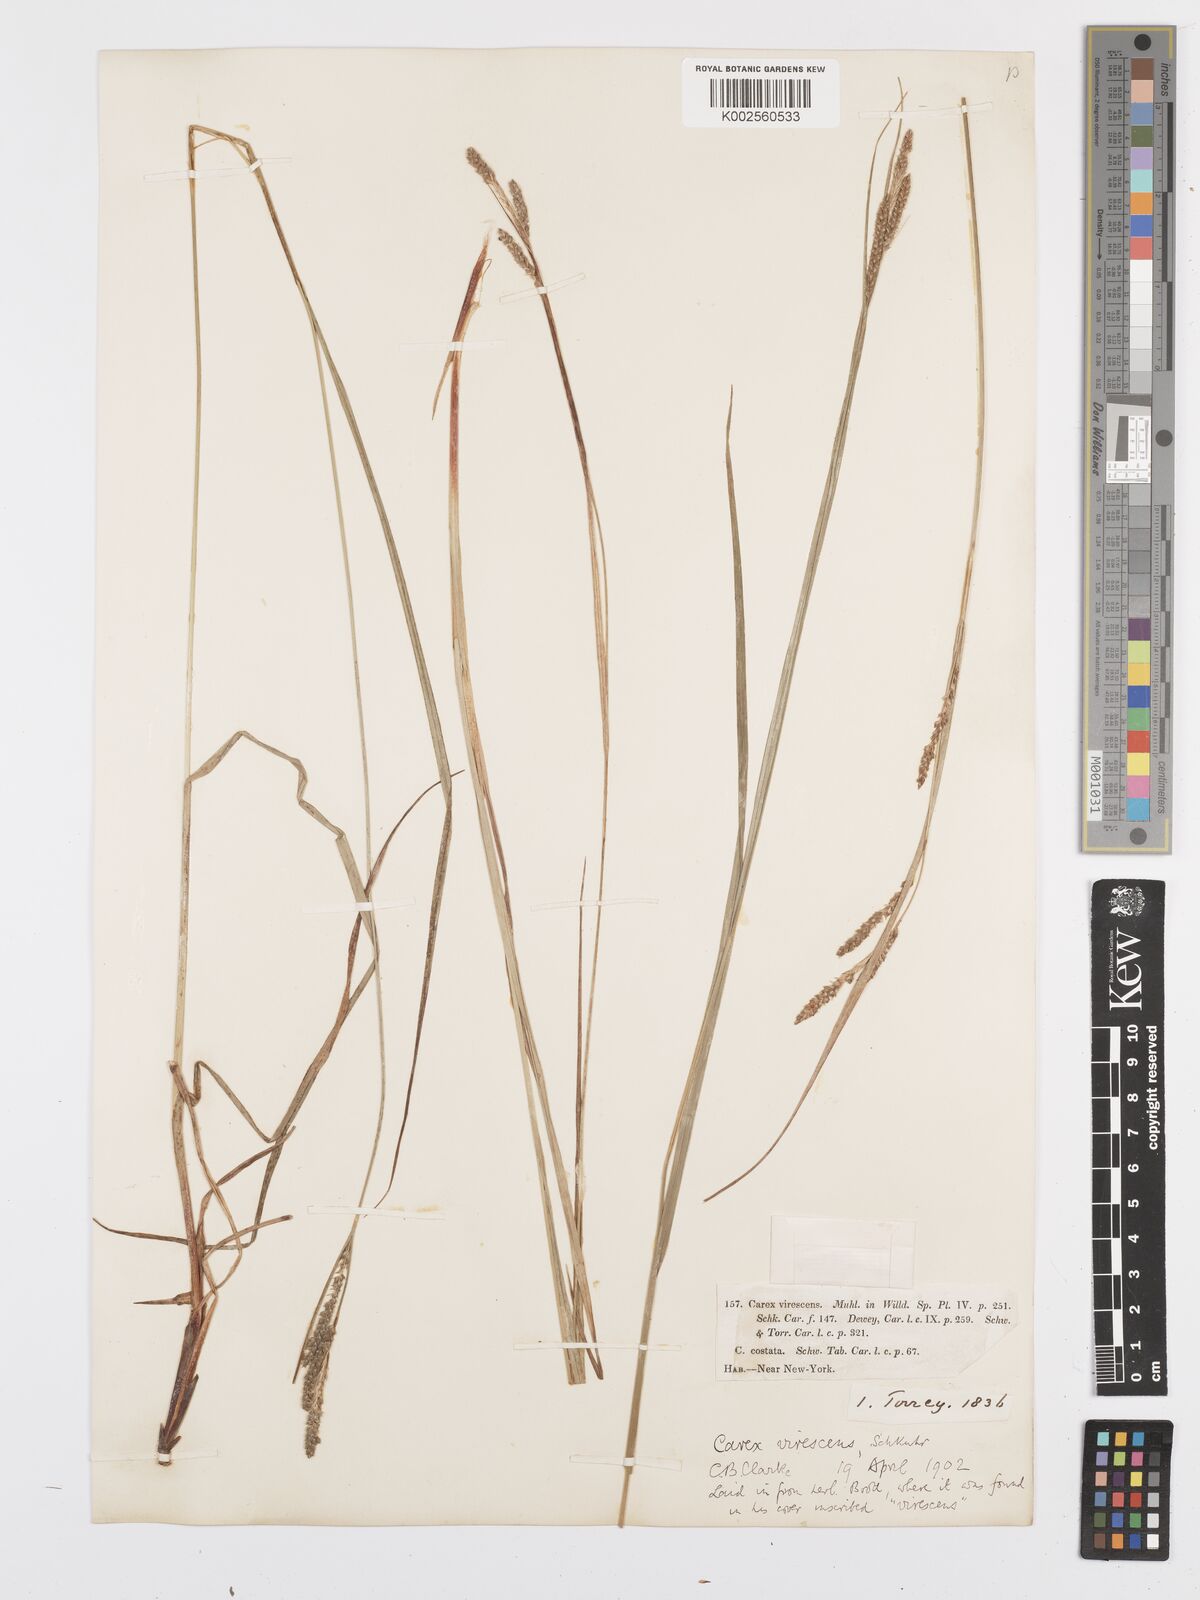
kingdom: Plantae
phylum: Tracheophyta
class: Liliopsida
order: Poales
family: Cyperaceae
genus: Carex
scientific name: Carex virescens
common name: Ribbed sedge
